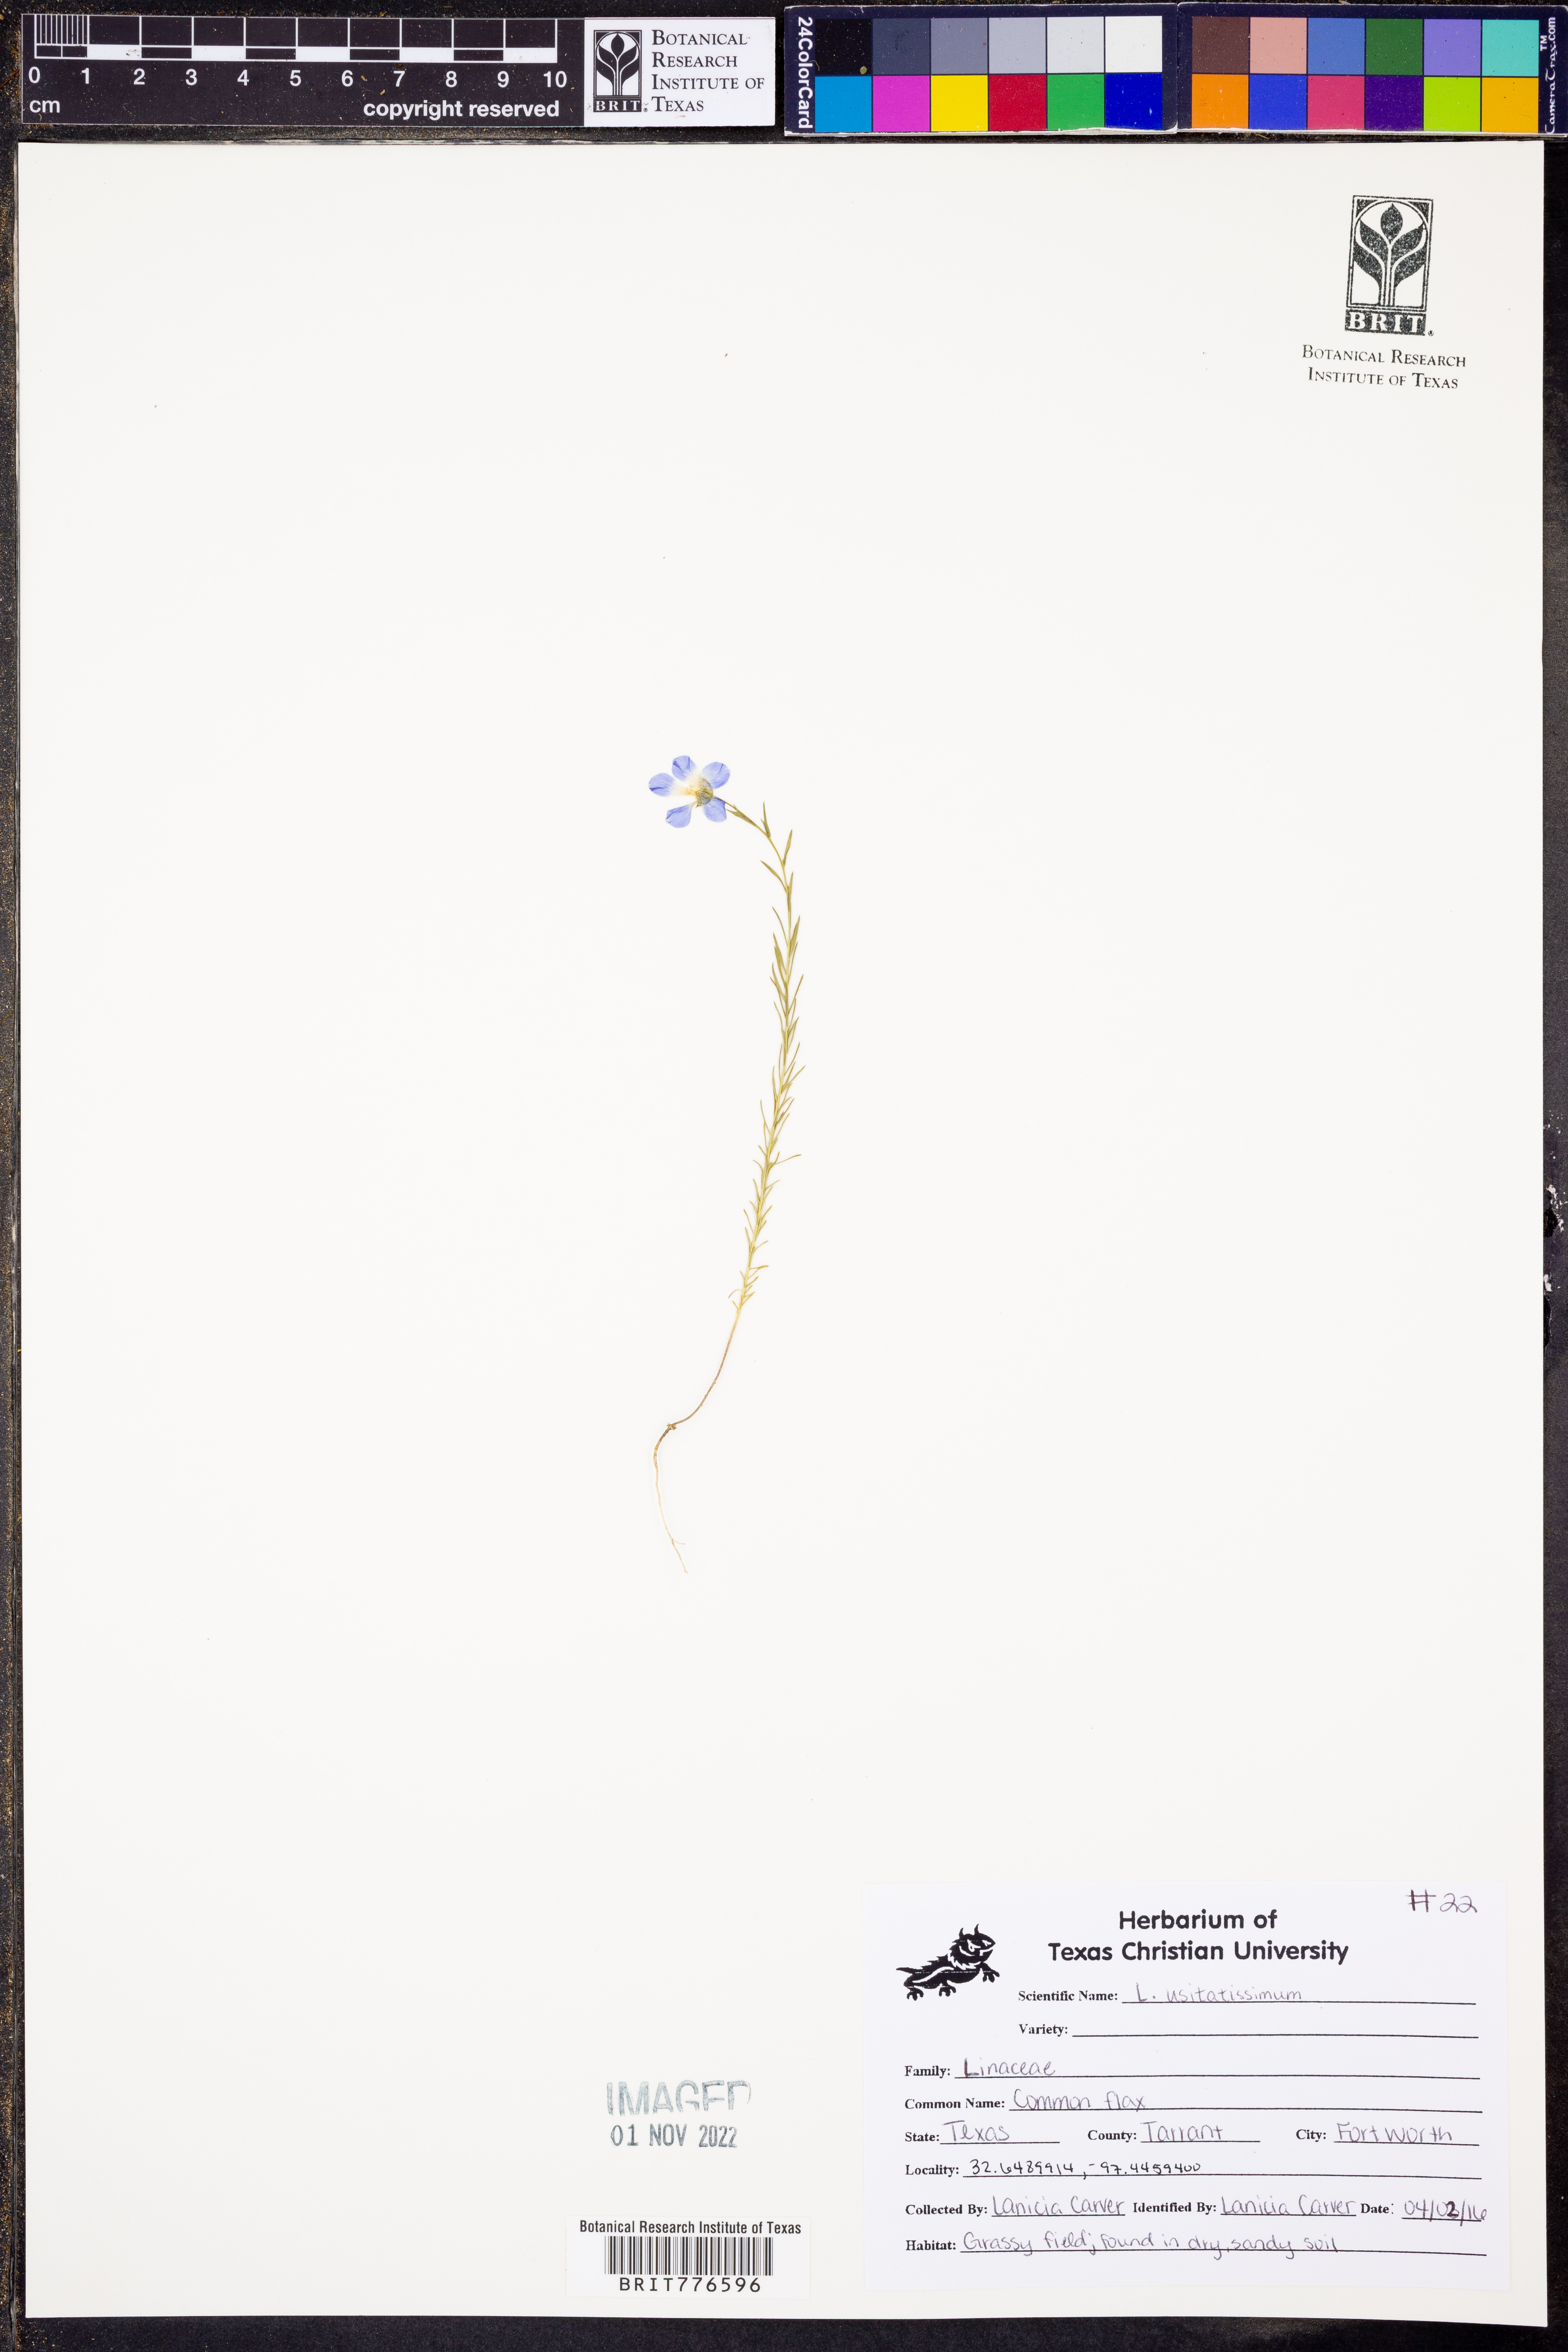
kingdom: Plantae
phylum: Tracheophyta
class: Magnoliopsida
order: Malpighiales
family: Linaceae
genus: Linum
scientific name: Linum usitatissimum
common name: Flax
